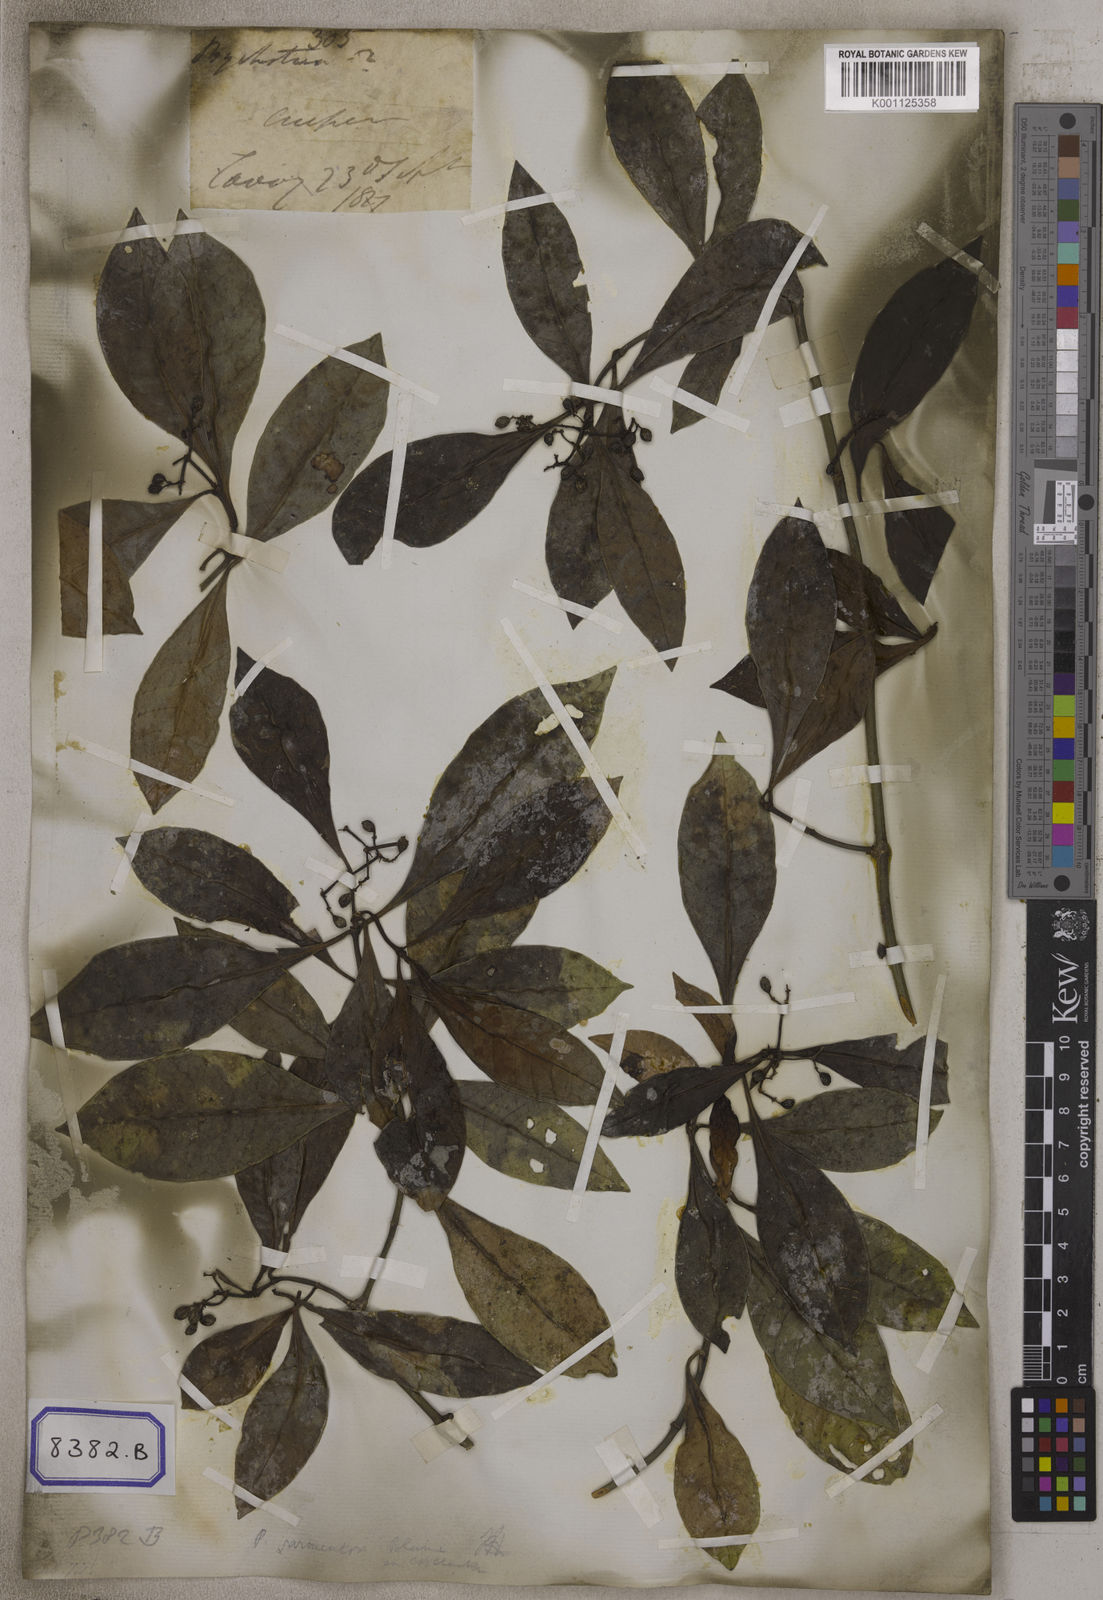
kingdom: Plantae
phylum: Tracheophyta
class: Magnoliopsida
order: Gentianales
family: Rubiaceae
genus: Psychotria
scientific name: Psychotria
